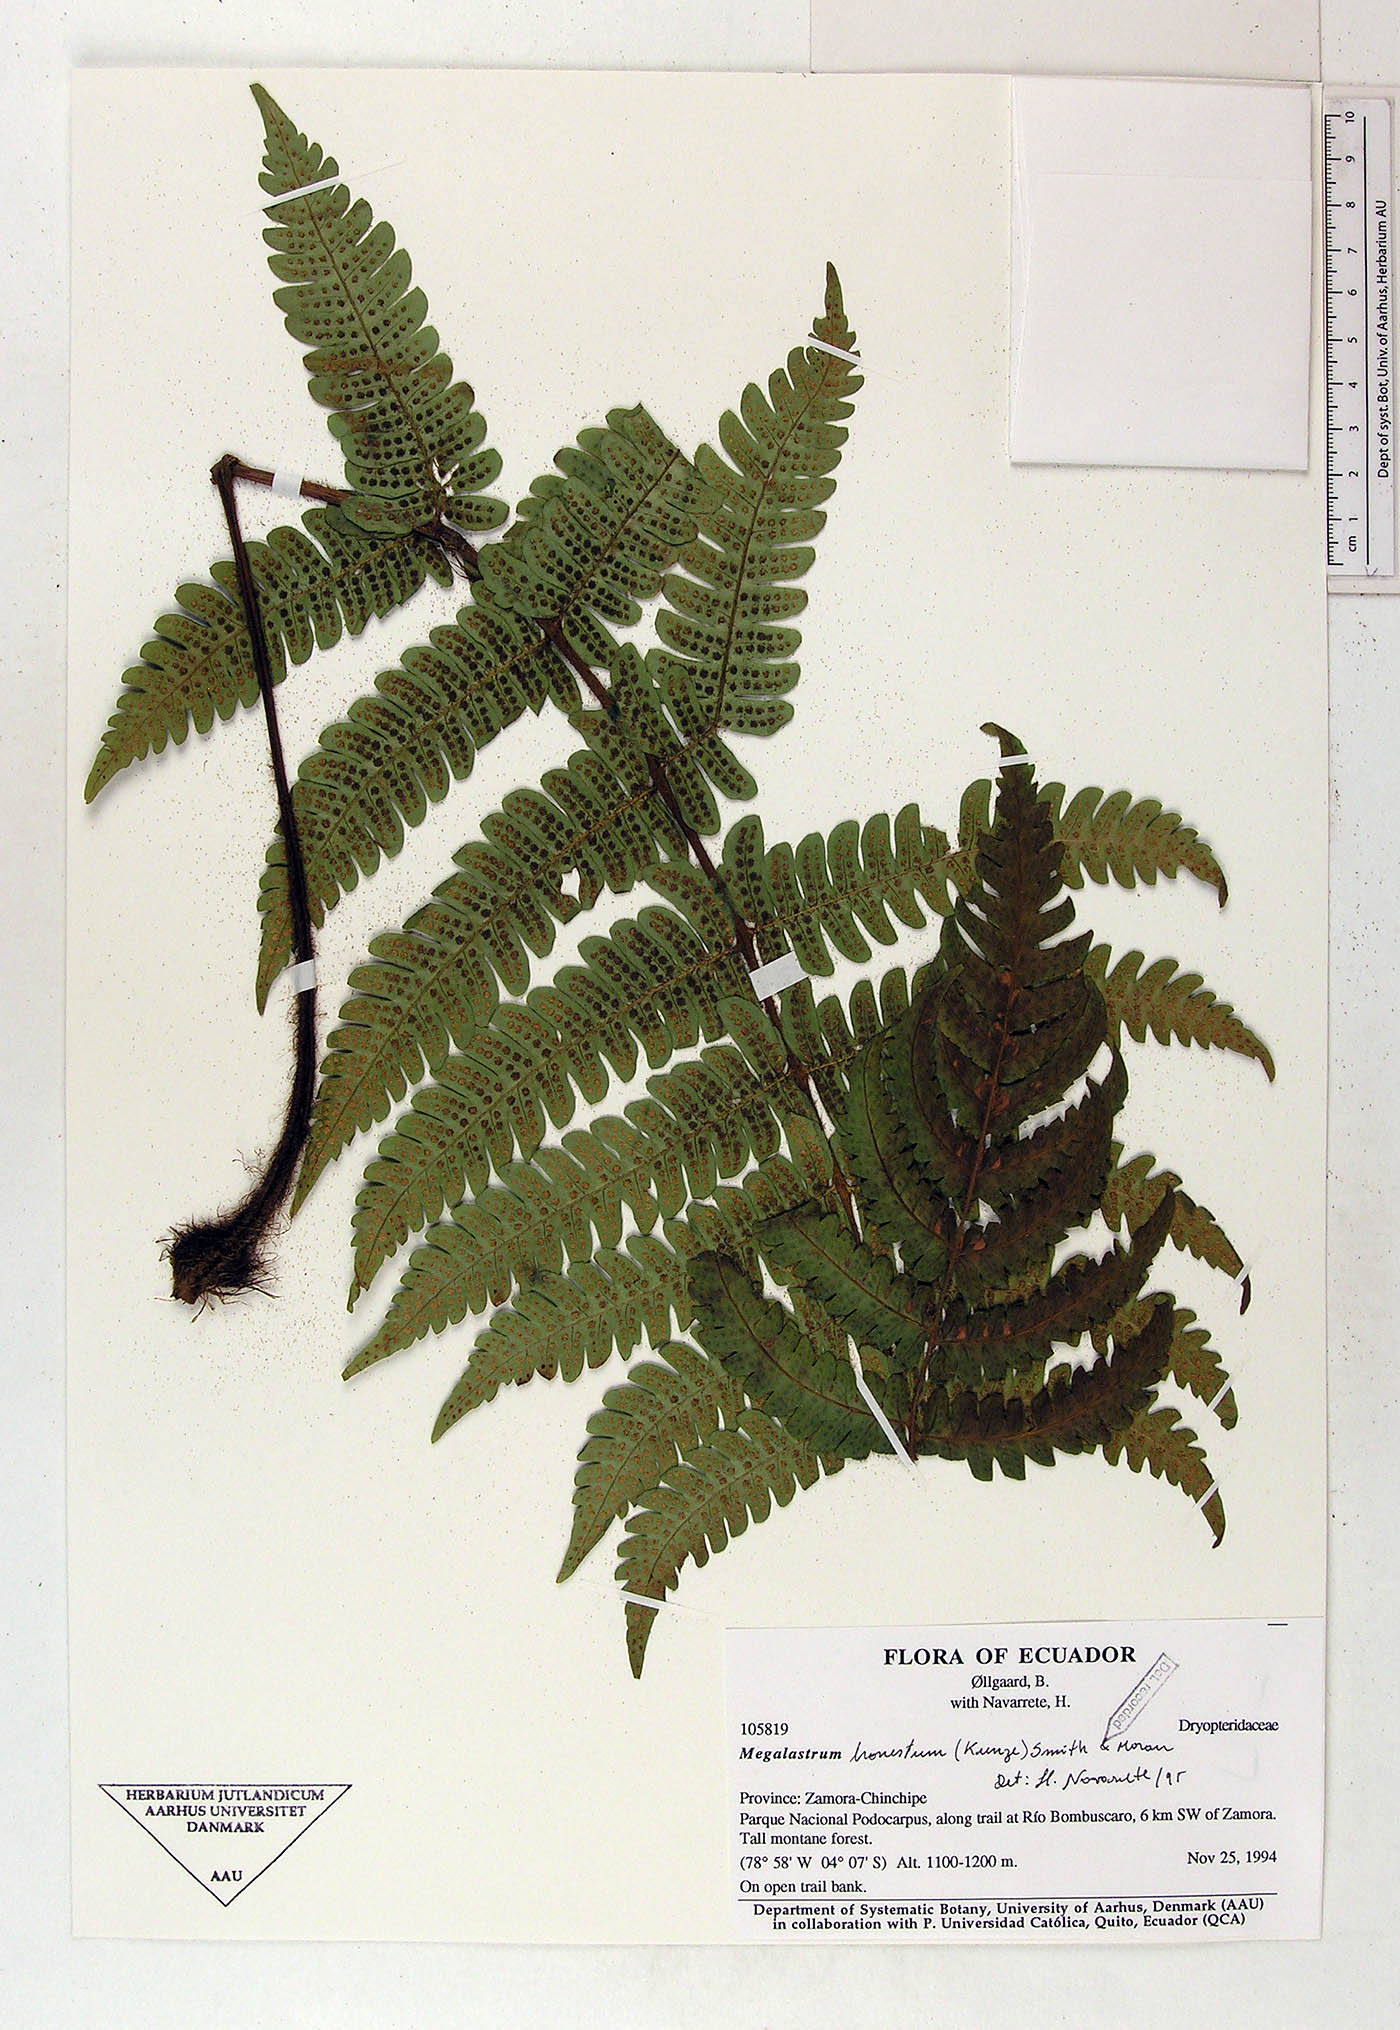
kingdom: Plantae
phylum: Tracheophyta
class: Polypodiopsida
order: Polypodiales
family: Dryopteridaceae
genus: Megalastrum
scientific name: Megalastrum fibrillosum
